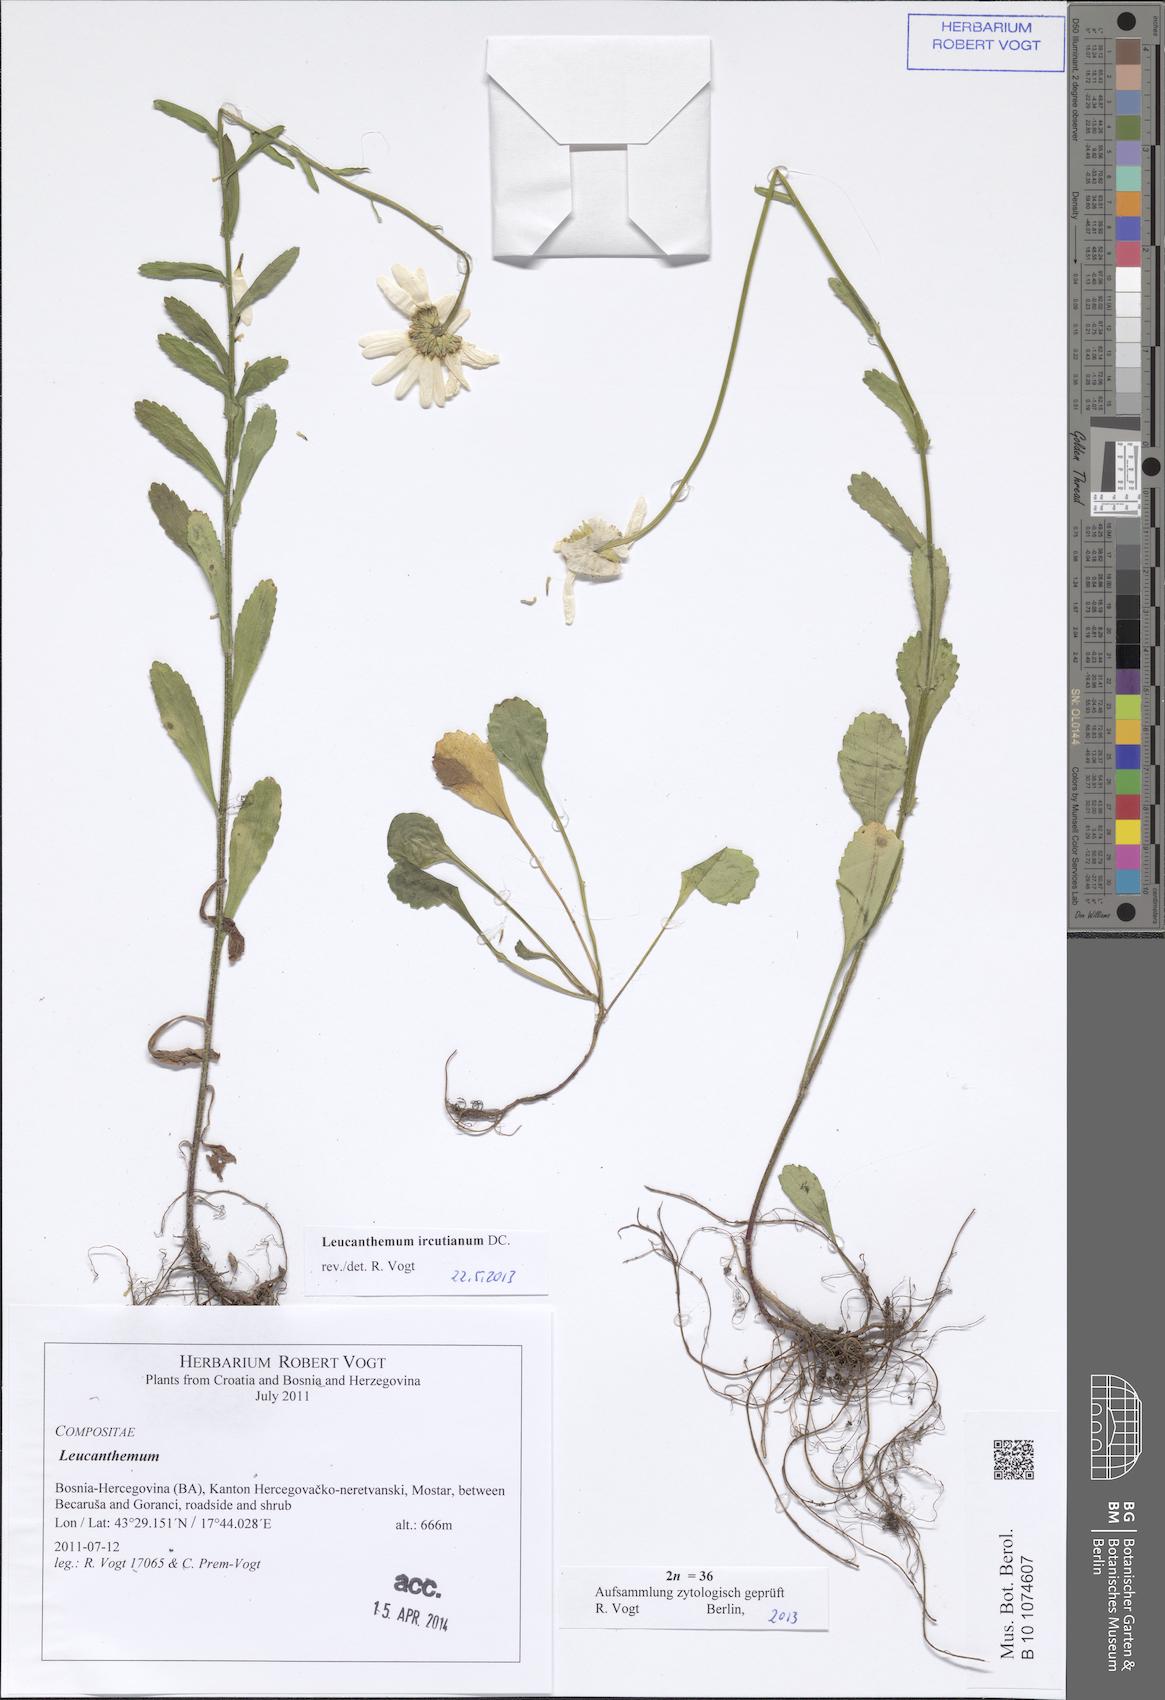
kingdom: Plantae
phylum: Tracheophyta
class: Magnoliopsida
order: Asterales
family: Asteraceae
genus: Leucanthemum
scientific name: Leucanthemum ircutianum
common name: Daisy
